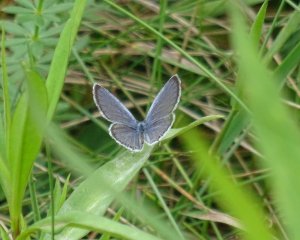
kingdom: Animalia
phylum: Arthropoda
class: Insecta
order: Lepidoptera
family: Lycaenidae
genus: Elkalyce
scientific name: Elkalyce comyntas
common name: Eastern Tailed-Blue
